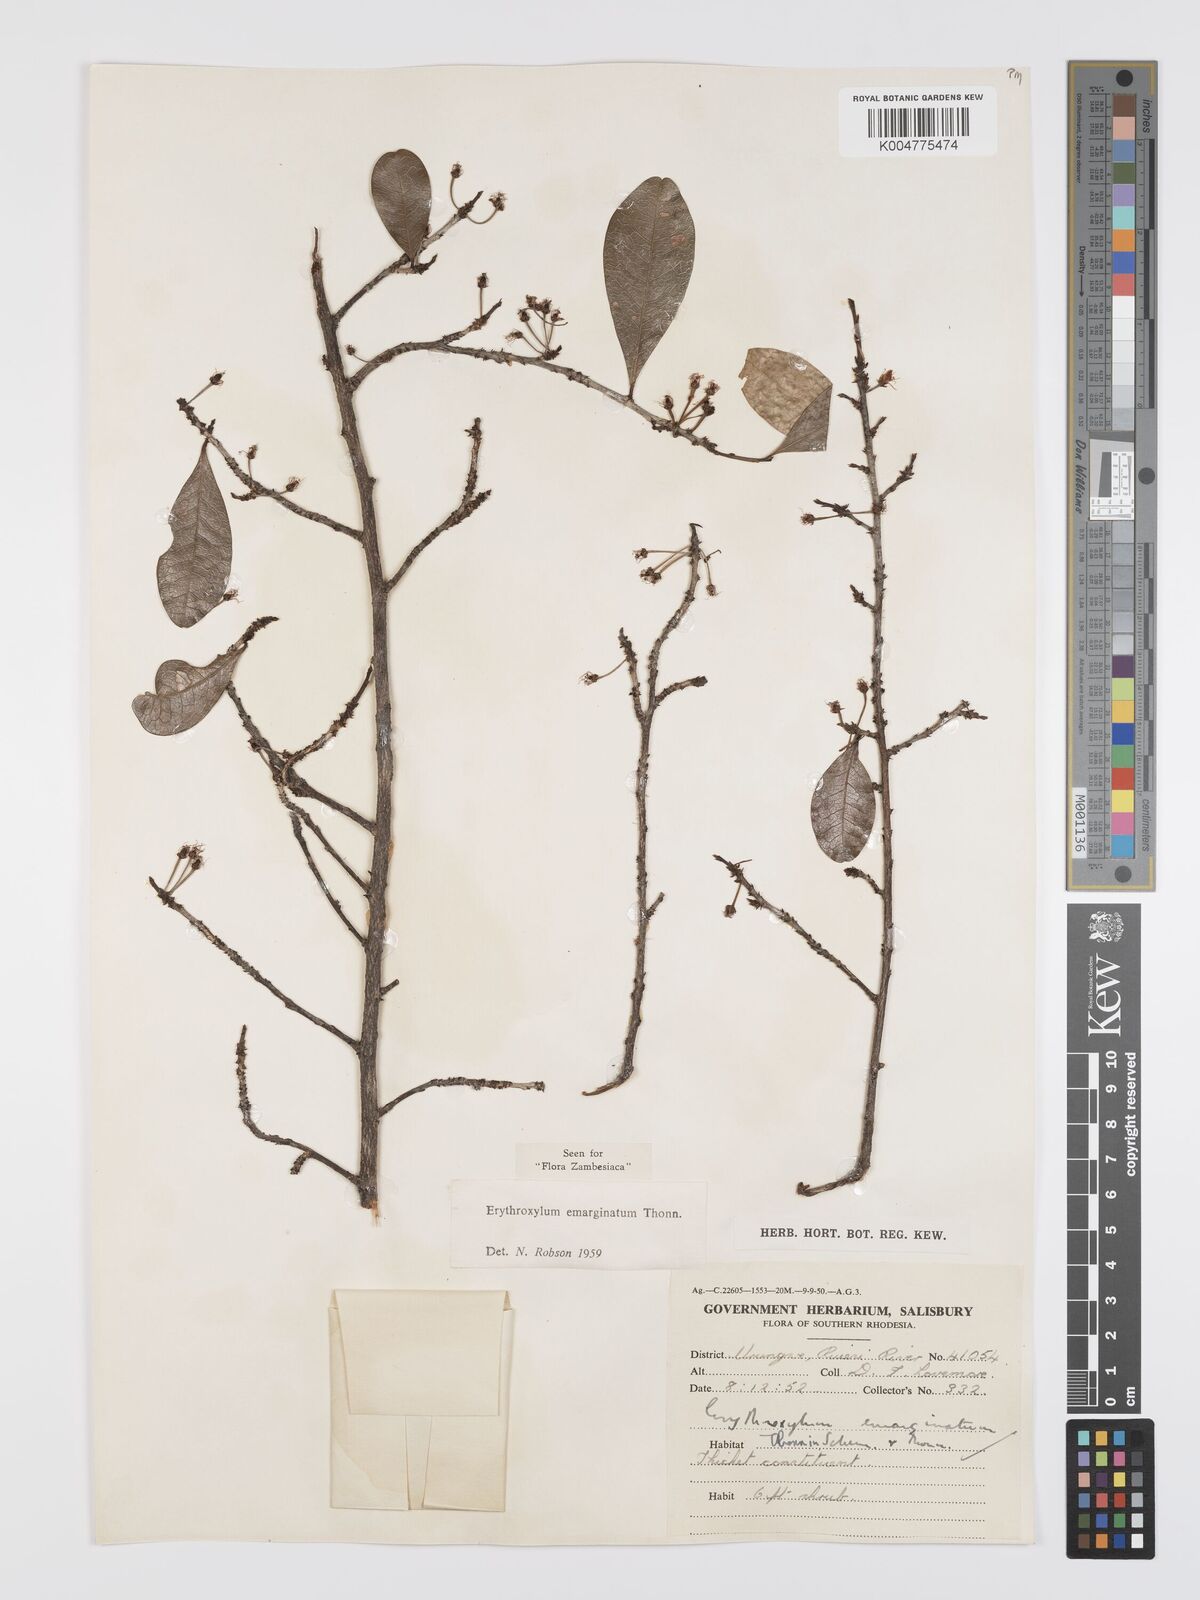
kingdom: Plantae
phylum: Tracheophyta
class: Magnoliopsida
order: Malpighiales
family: Erythroxylaceae
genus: Erythroxylum
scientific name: Erythroxylum emarginatum
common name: African coca-tree
